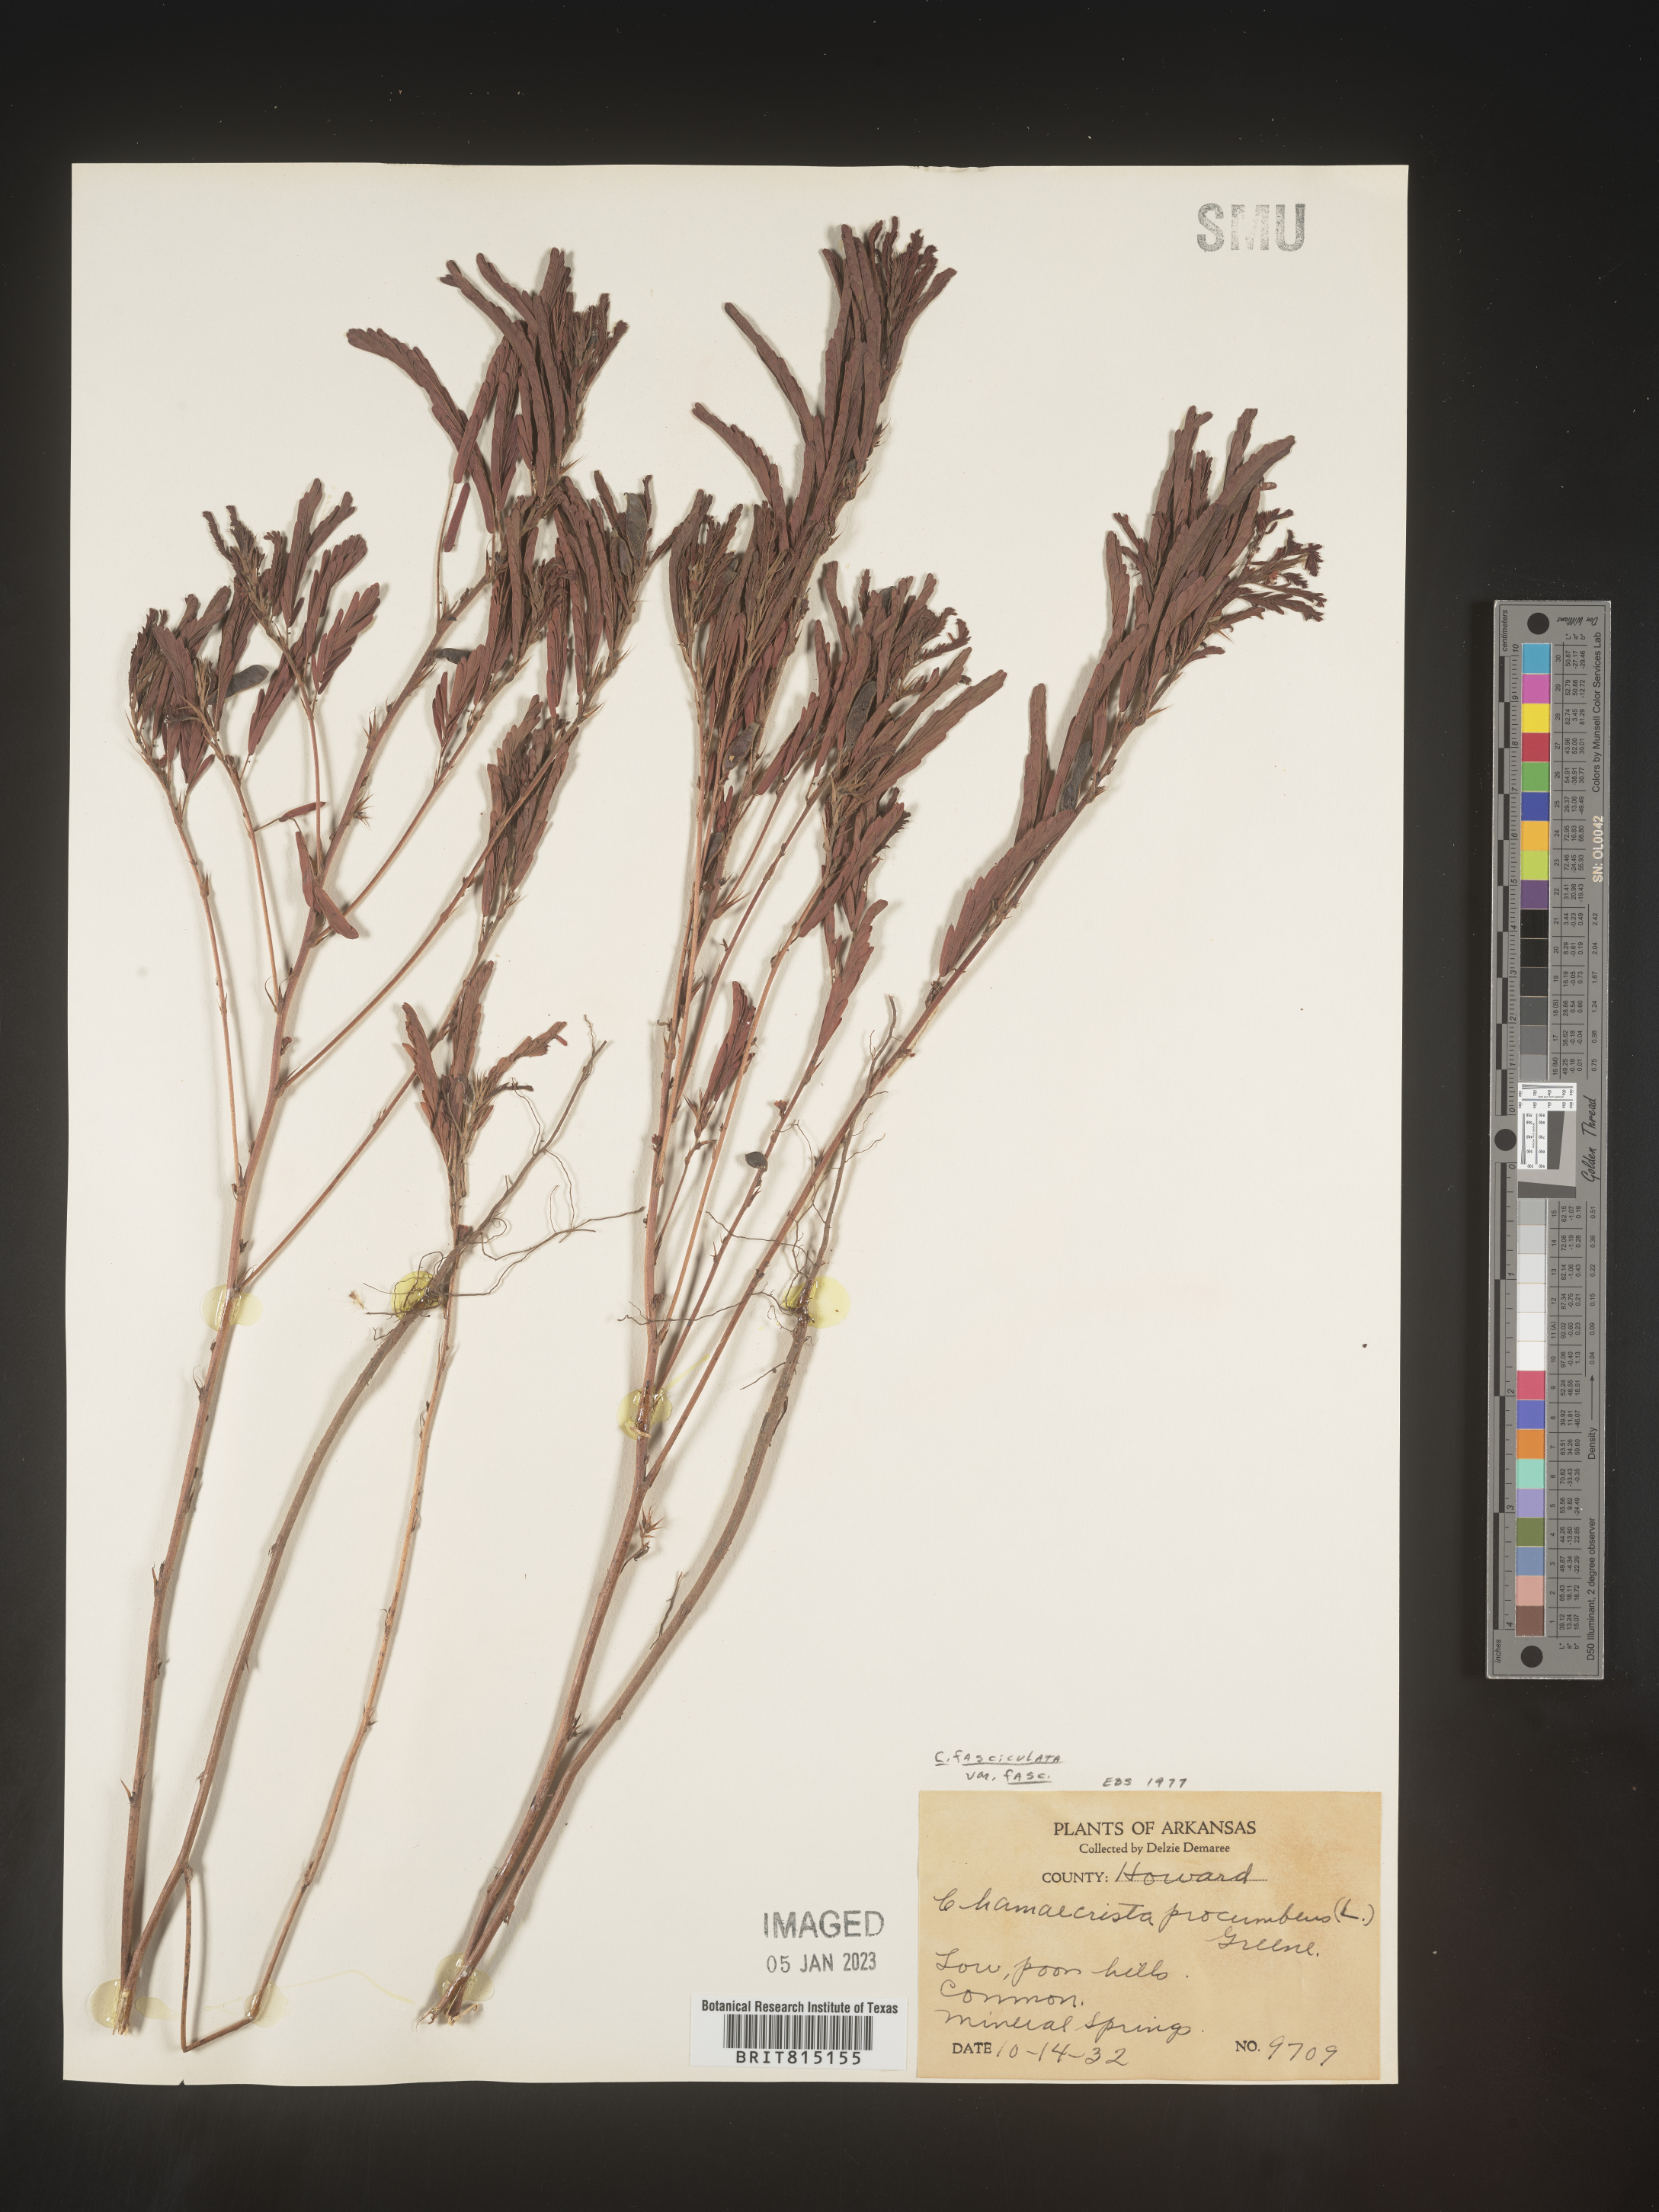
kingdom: Plantae
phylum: Tracheophyta
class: Magnoliopsida
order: Fabales
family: Fabaceae
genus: Chamaecrista
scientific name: Chamaecrista fasciculata
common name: Golden cassia
